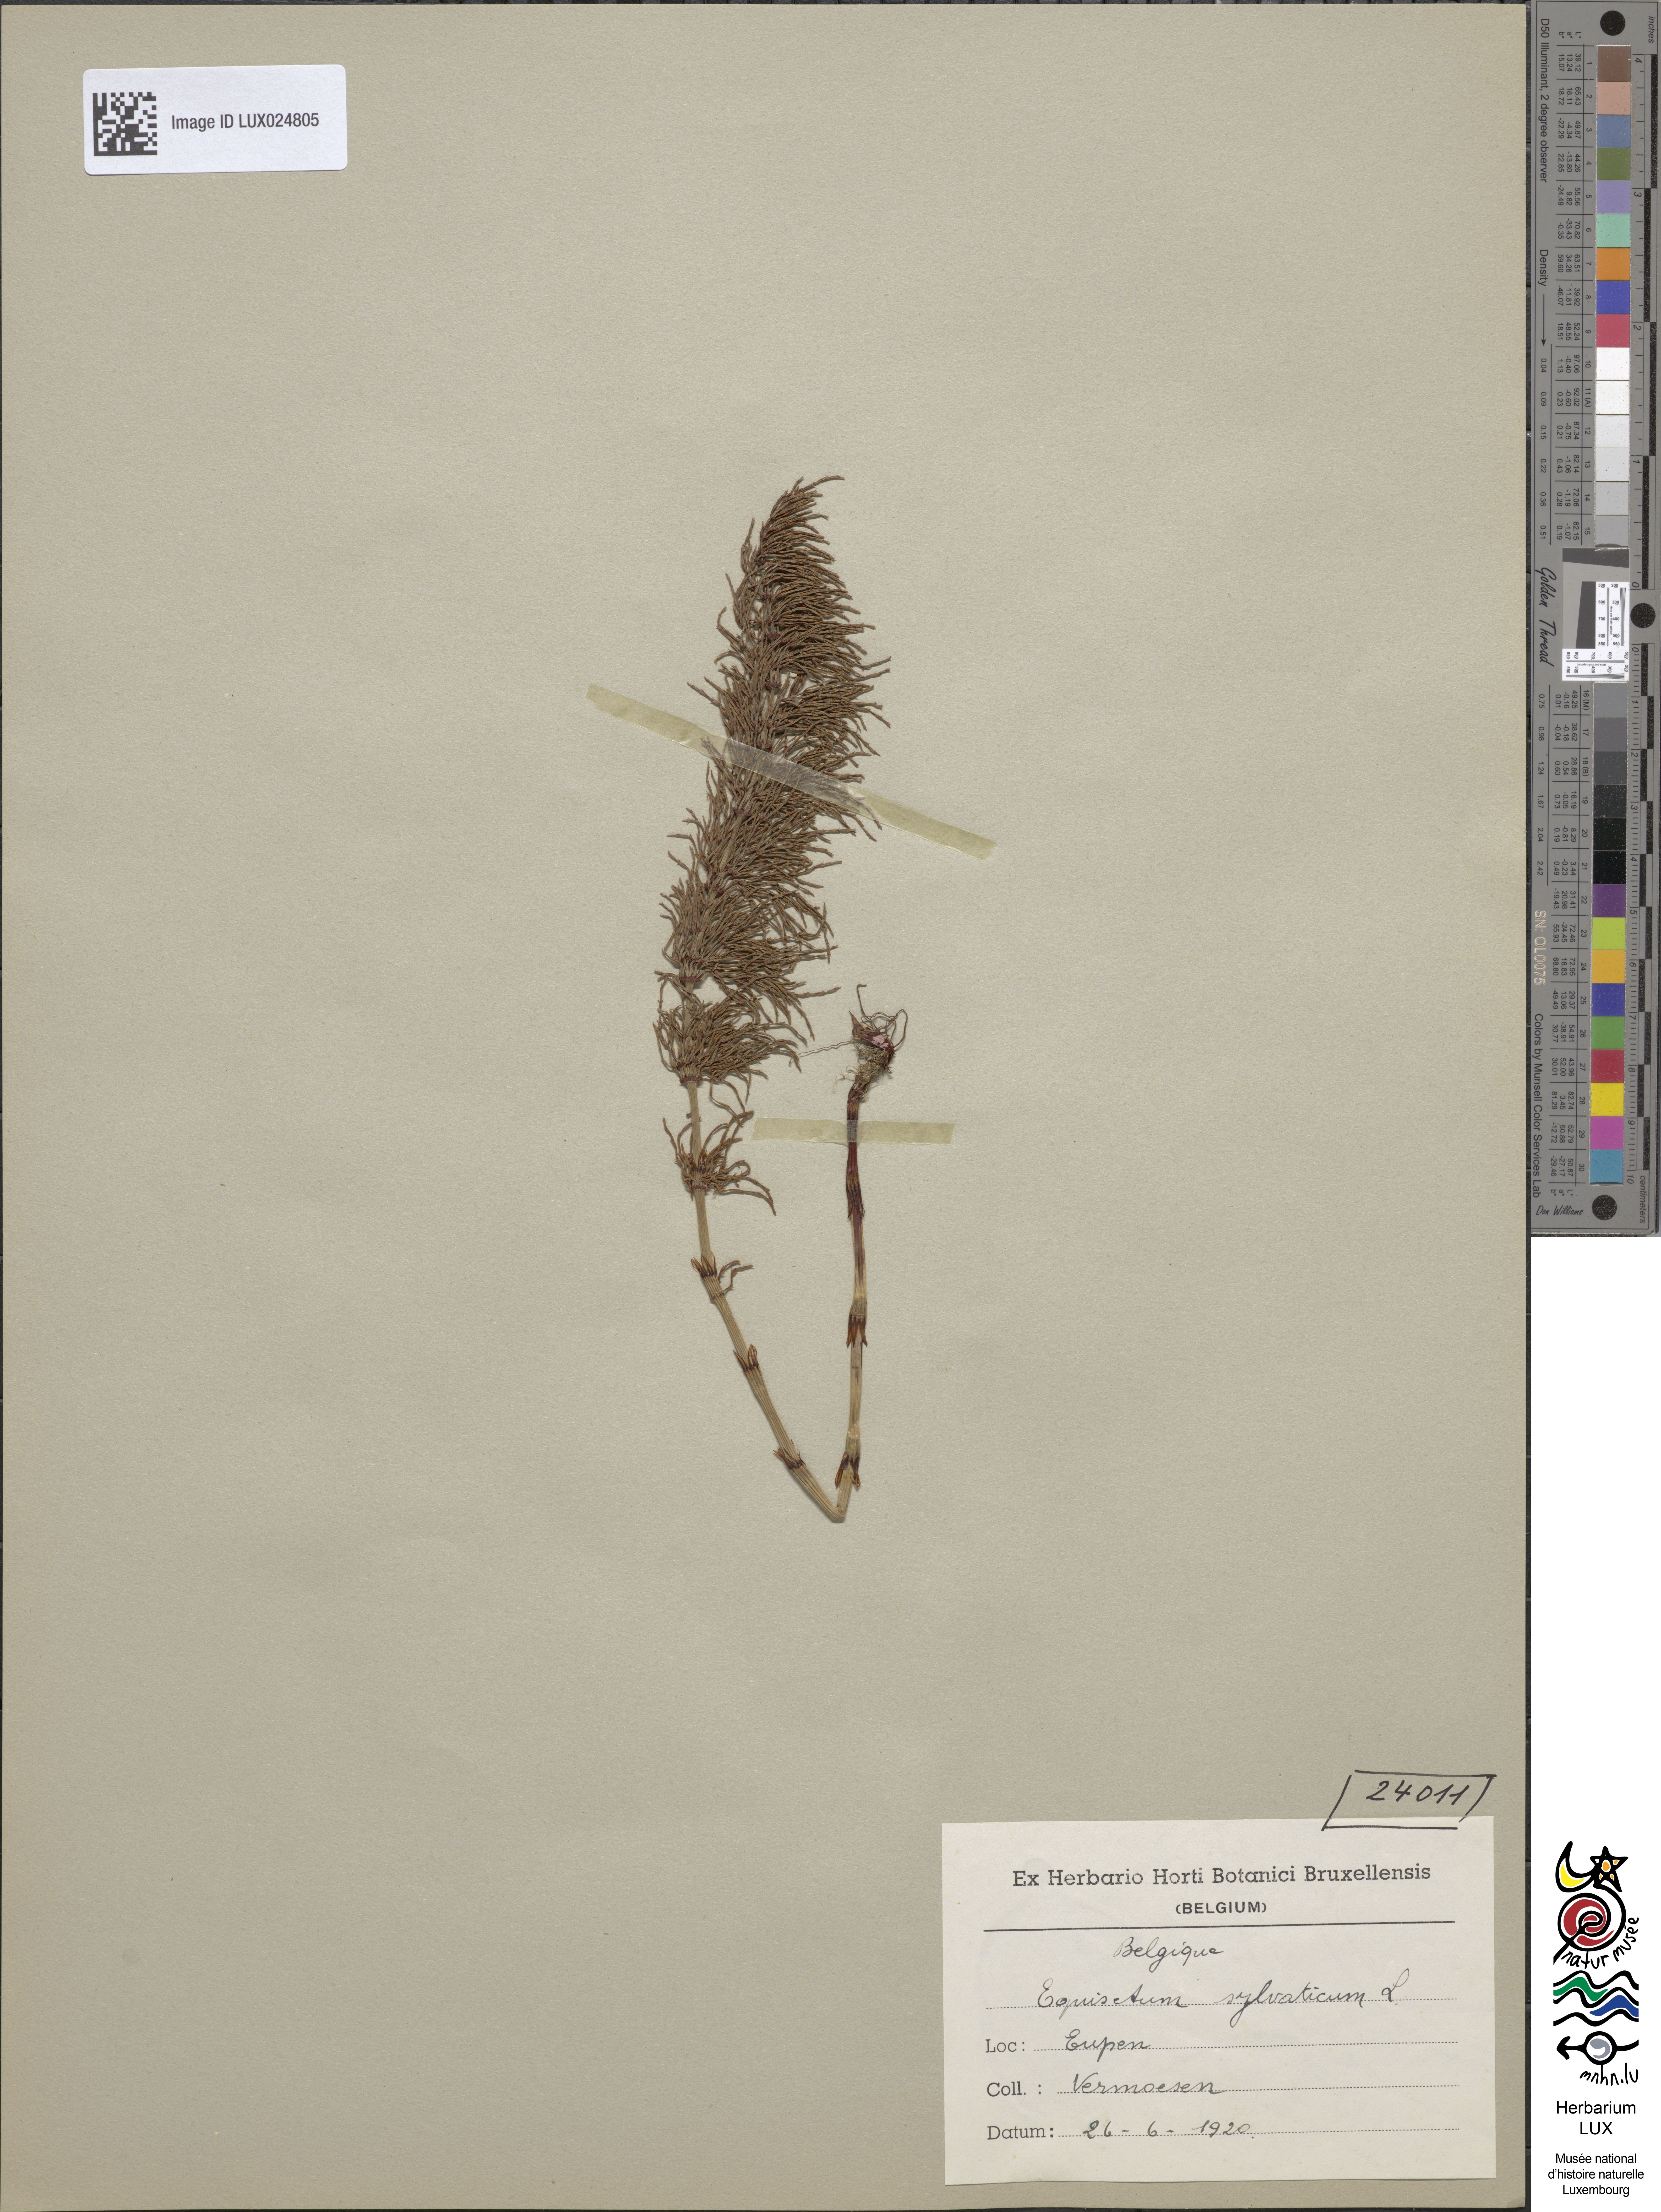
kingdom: Plantae
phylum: Tracheophyta
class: Polypodiopsida
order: Equisetales
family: Equisetaceae
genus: Equisetum
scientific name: Equisetum sylvaticum
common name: Wood horsetail
